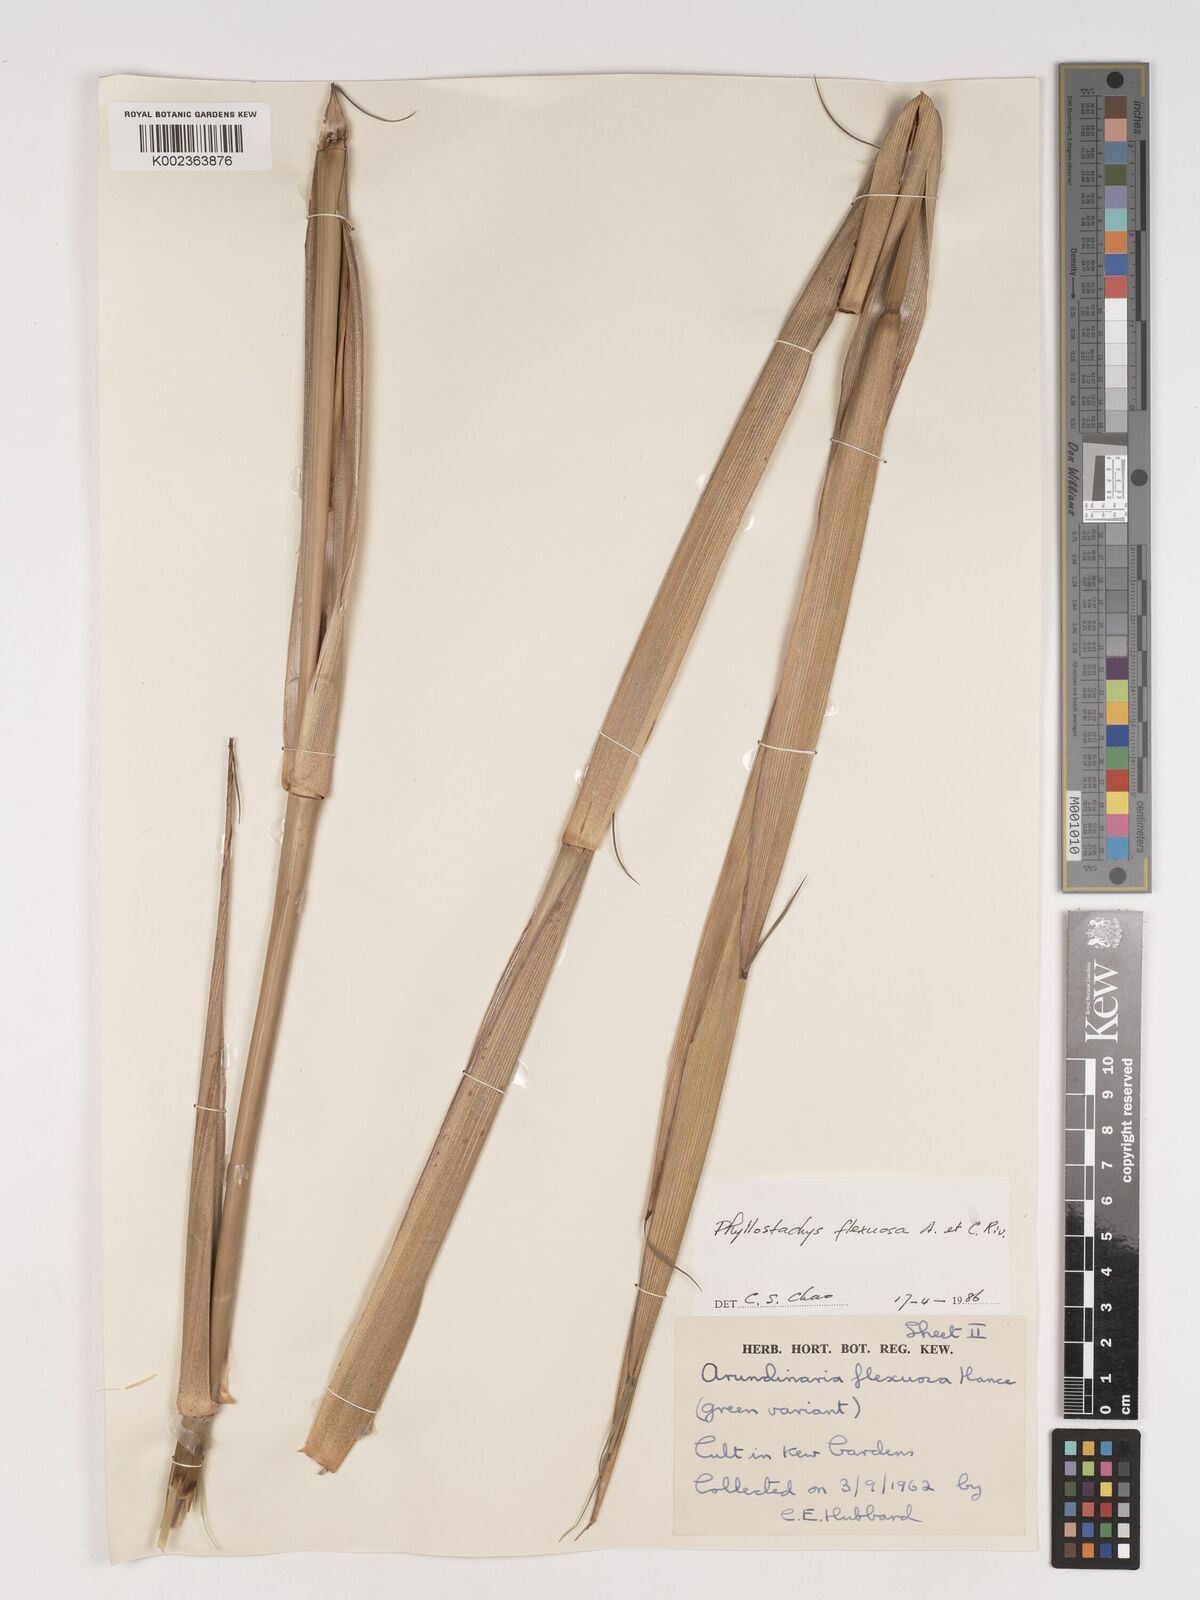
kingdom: Plantae
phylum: Tracheophyta
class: Liliopsida
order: Poales
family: Poaceae
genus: Phyllostachys
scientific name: Phyllostachys flexuosa
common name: Drooping timber bamboo
